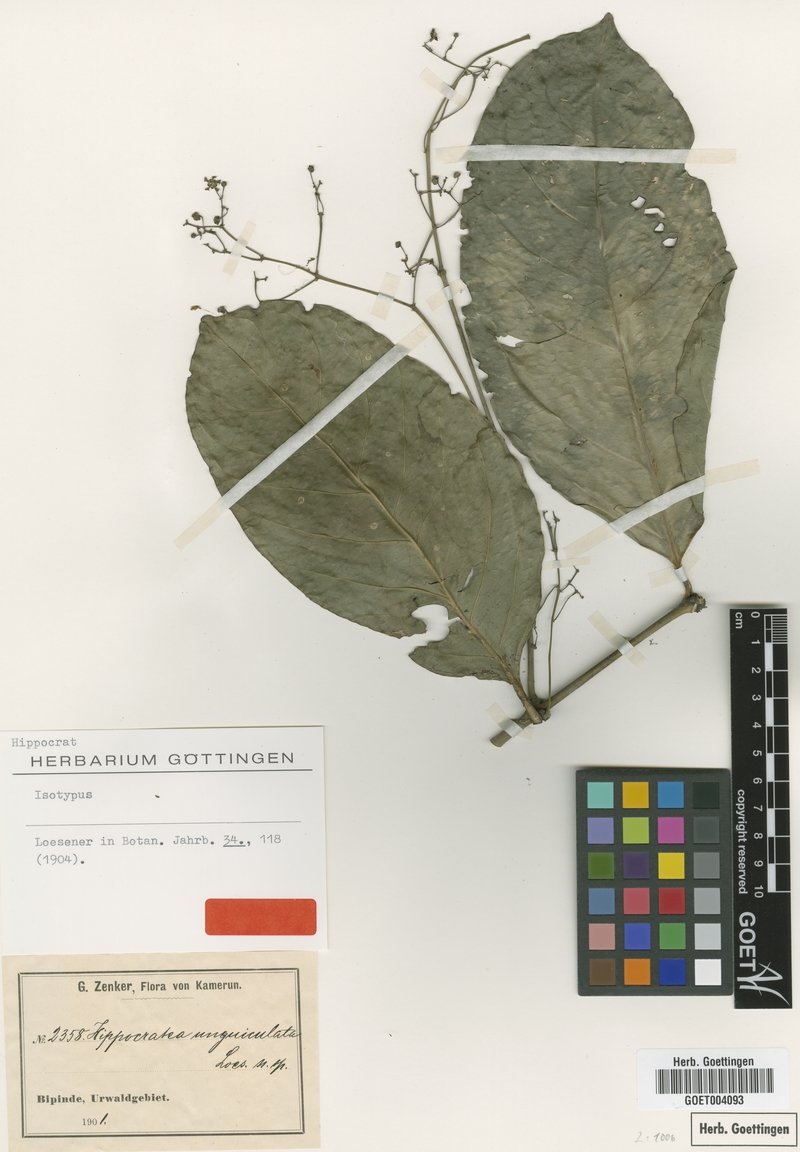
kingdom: Plantae
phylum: Tracheophyta
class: Magnoliopsida
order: Celastrales
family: Celastraceae
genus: Pristimera
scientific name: Pristimera unguiculata
